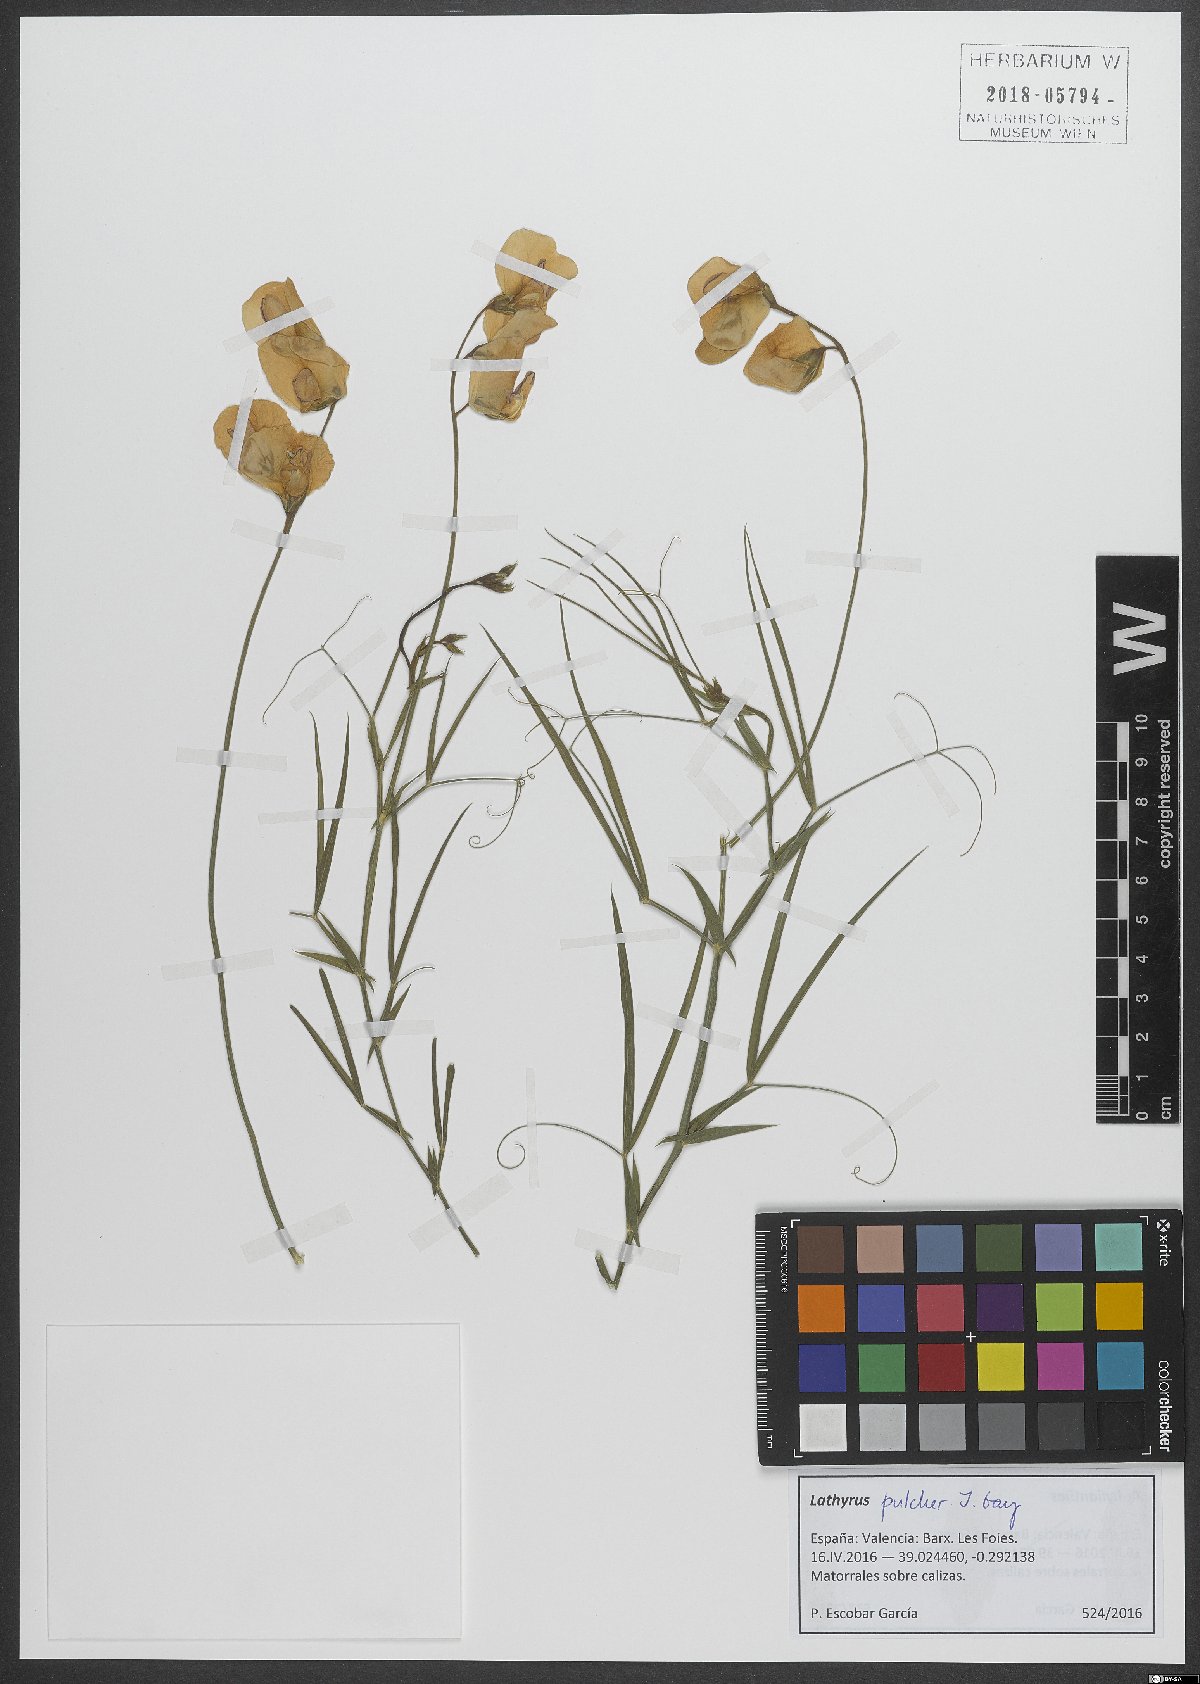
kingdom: Plantae
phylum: Tracheophyta
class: Magnoliopsida
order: Fabales
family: Fabaceae
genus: Lathyrus
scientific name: Lathyrus tremolsianus
